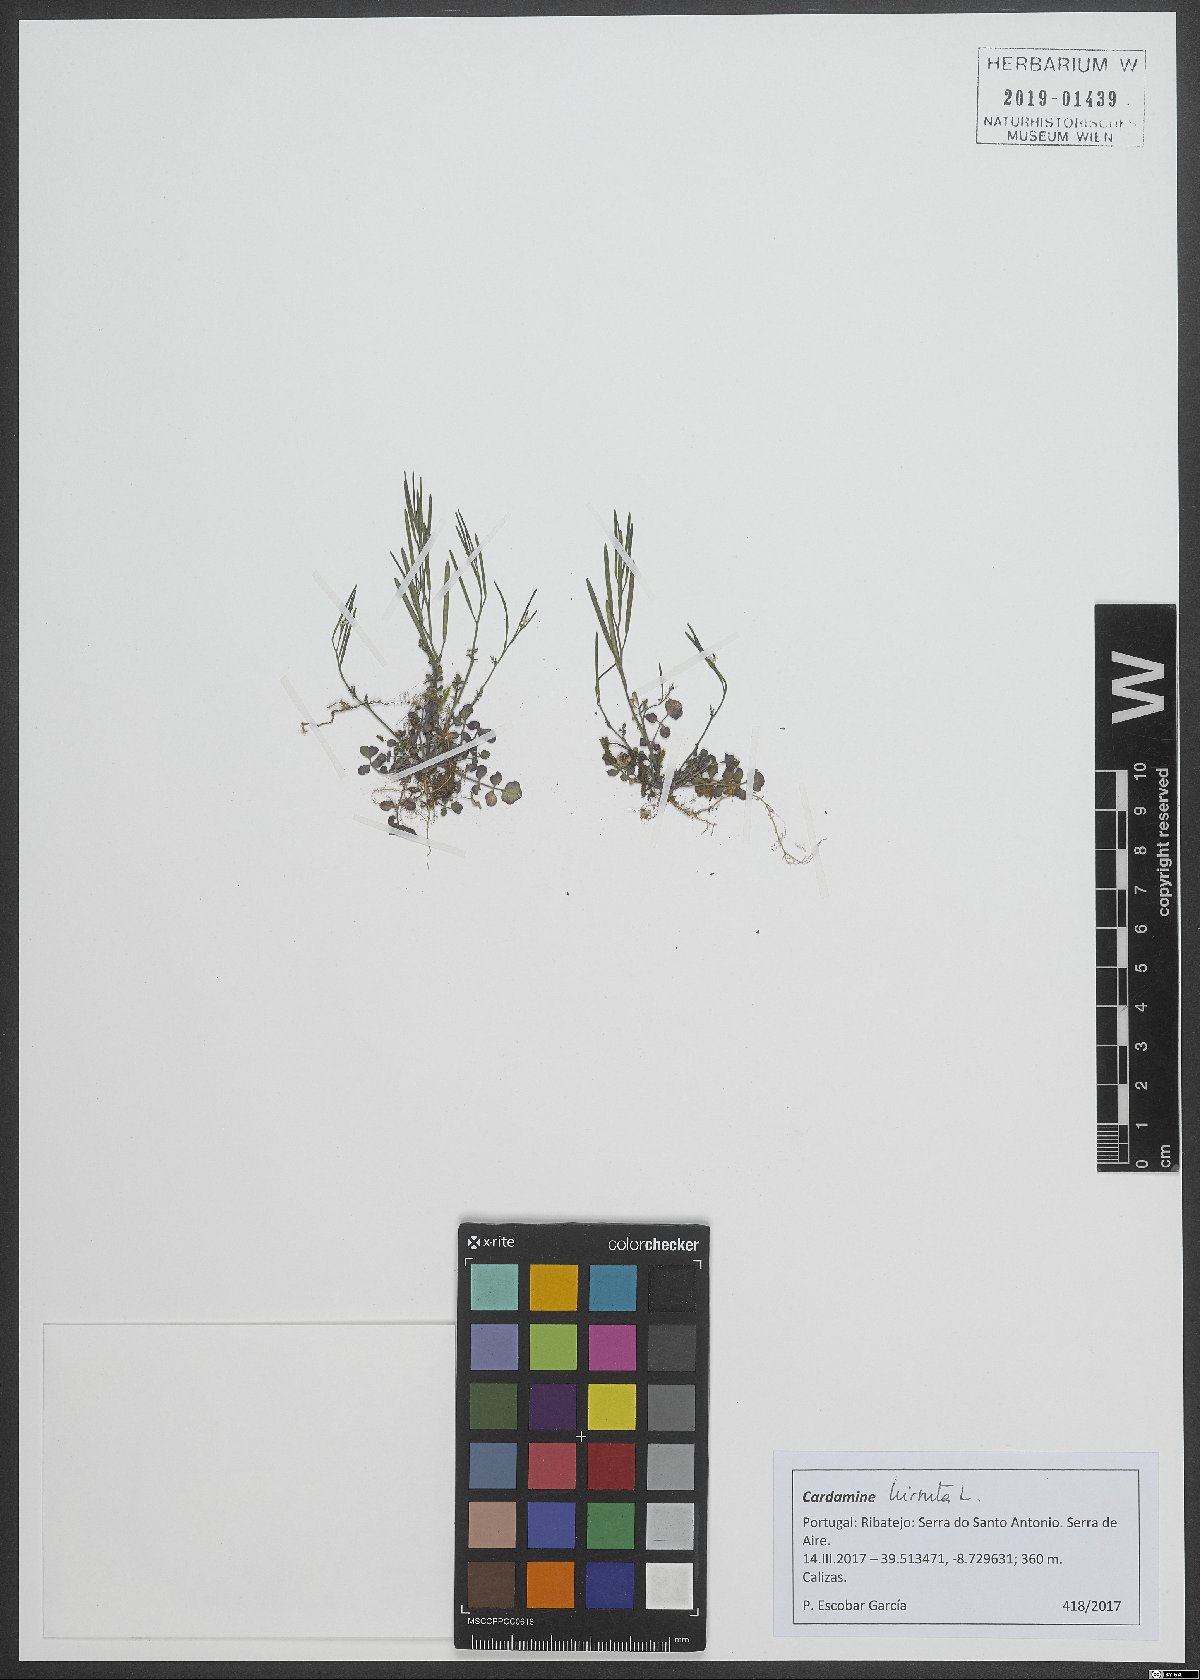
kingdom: Plantae
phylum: Tracheophyta
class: Magnoliopsida
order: Brassicales
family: Brassicaceae
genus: Cardamine
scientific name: Cardamine hirsuta
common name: Hairy bittercress
